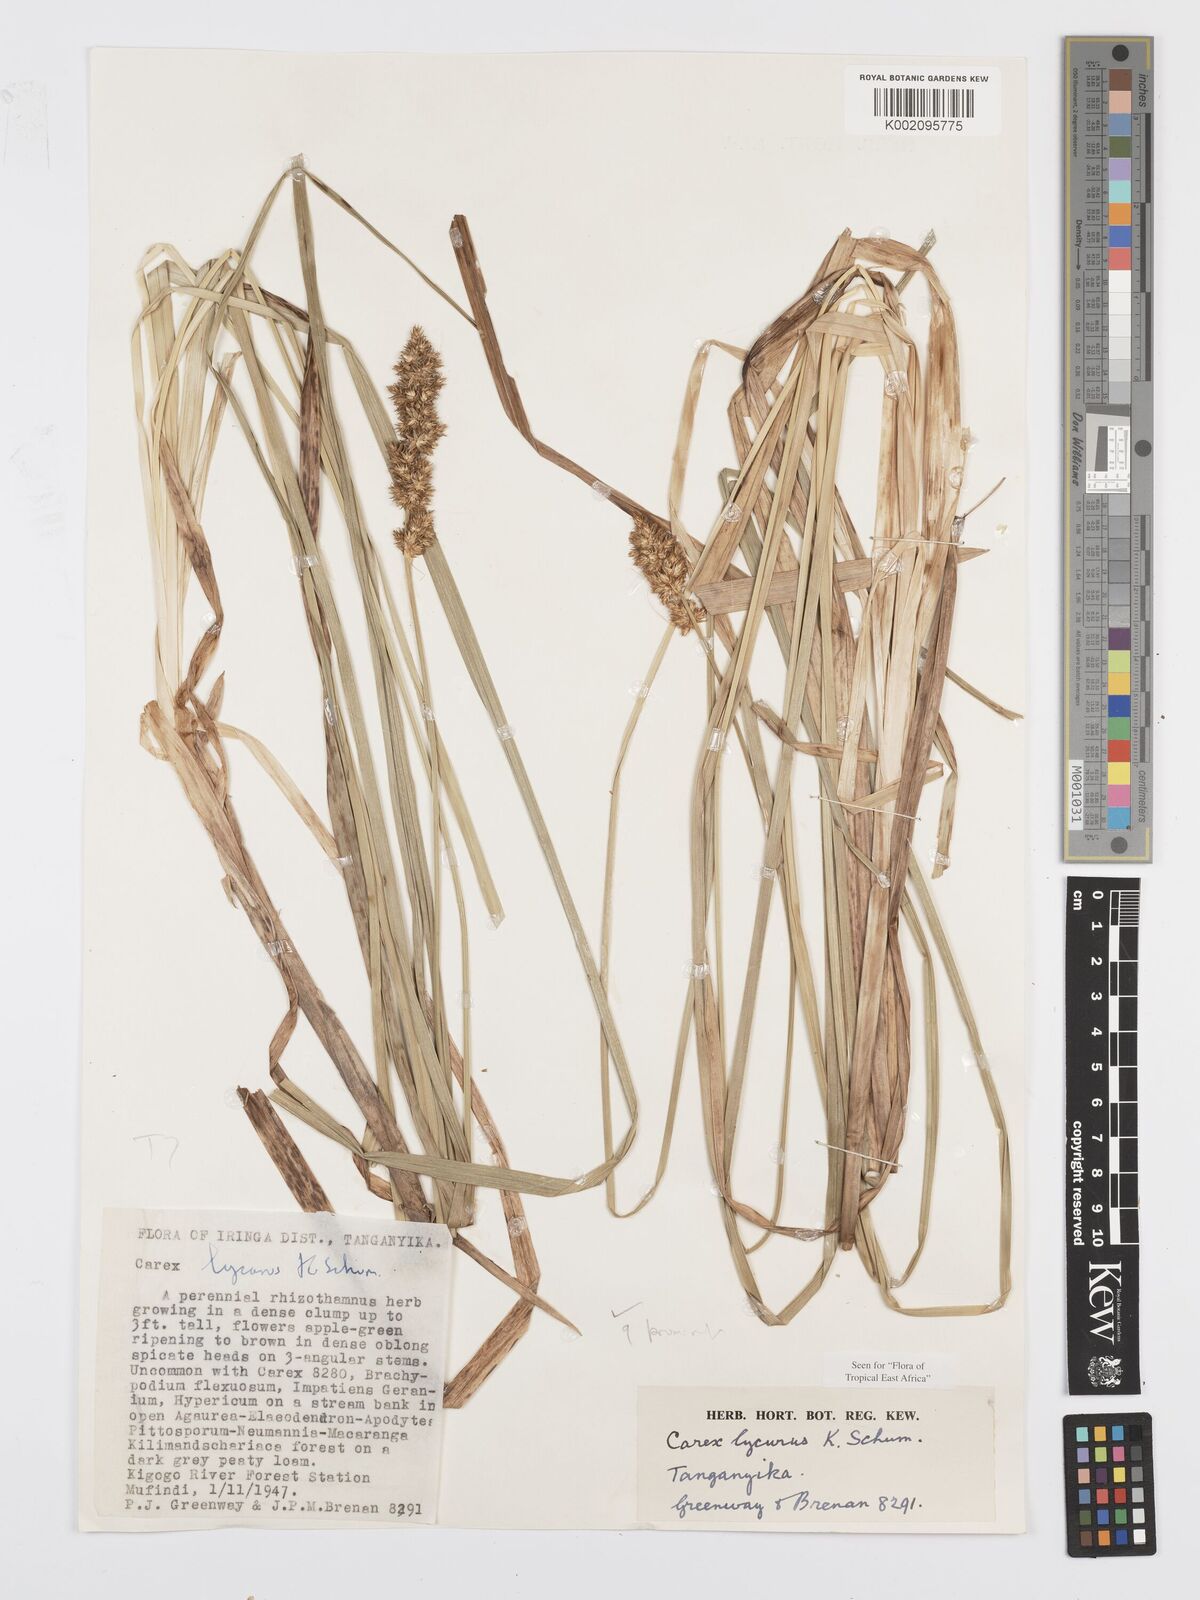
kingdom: Plantae
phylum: Tracheophyta
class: Liliopsida
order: Poales
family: Cyperaceae
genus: Carex
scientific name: Carex lycurus
